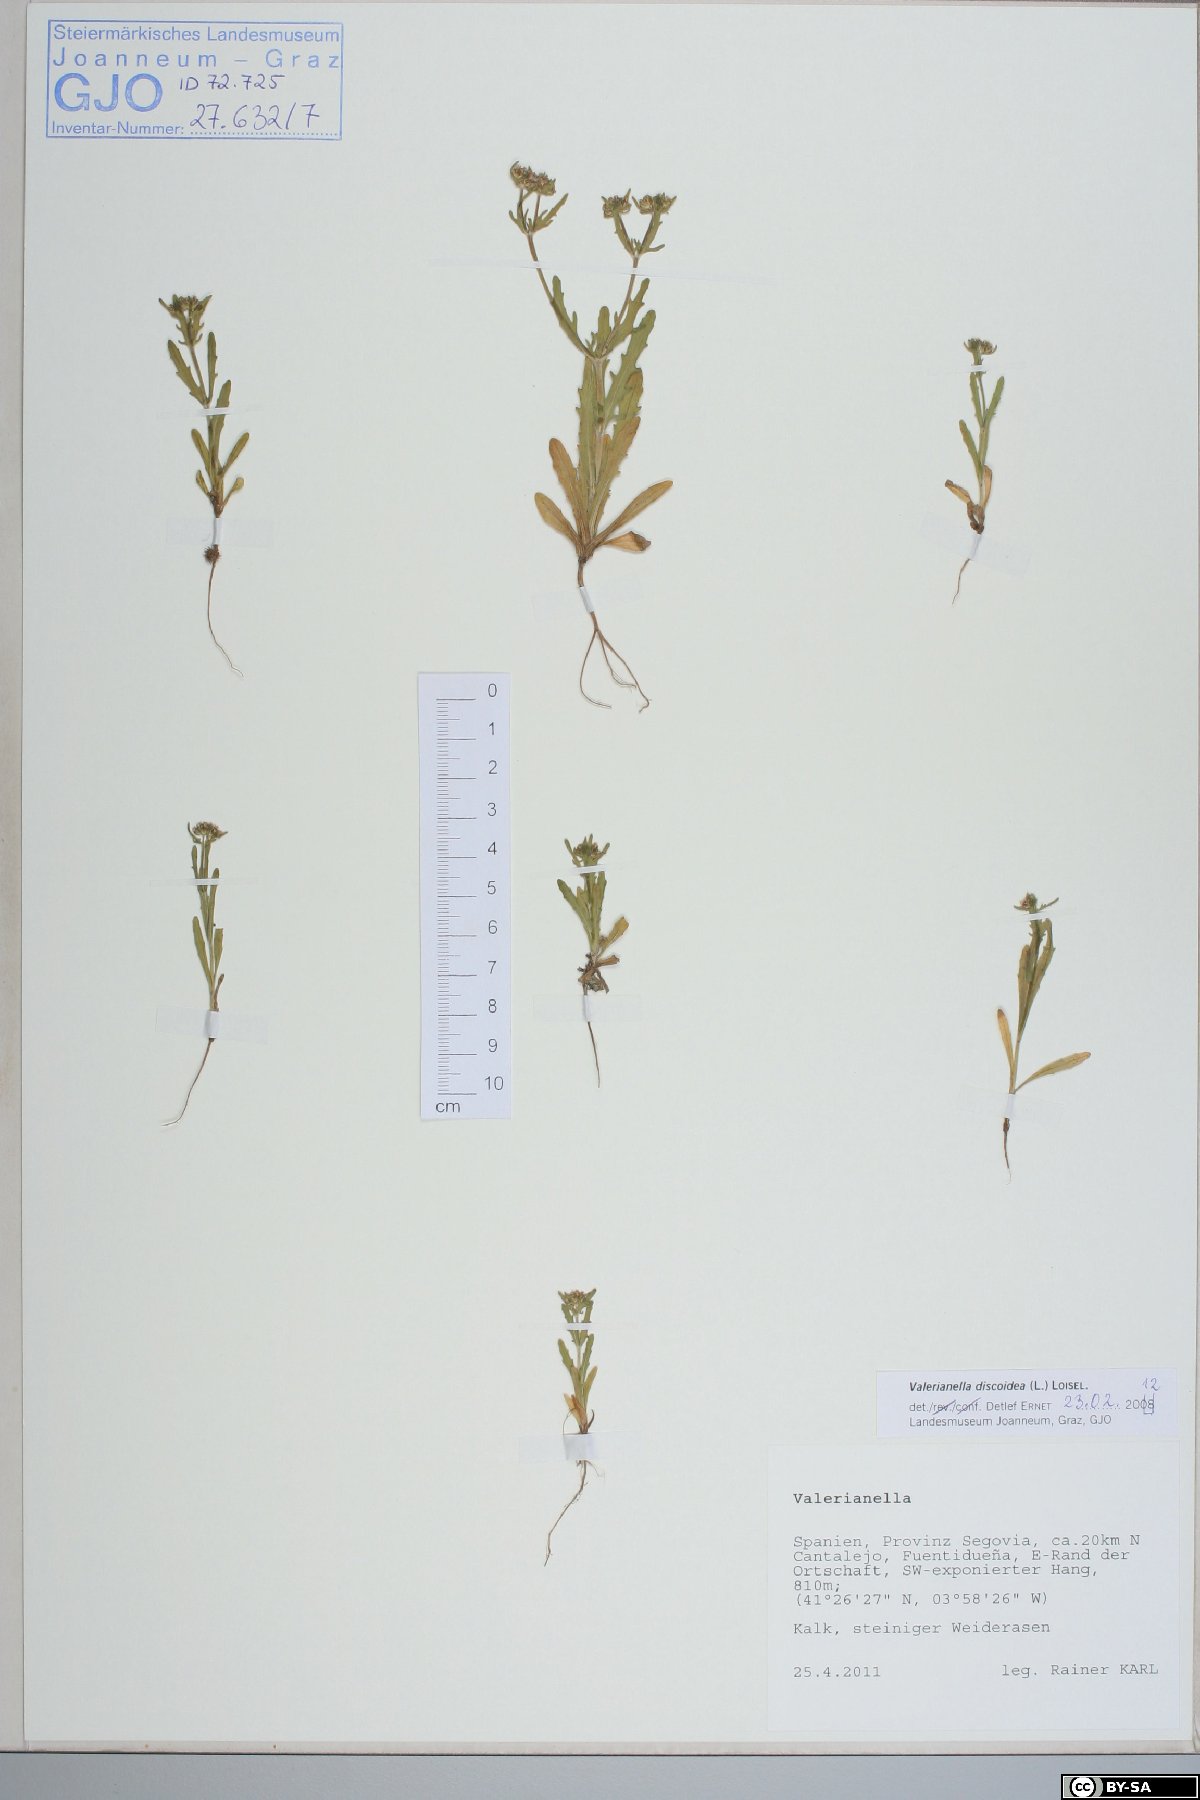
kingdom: Plantae
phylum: Tracheophyta
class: Magnoliopsida
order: Dipsacales
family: Caprifoliaceae
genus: Valerianella
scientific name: Valerianella discoidea
